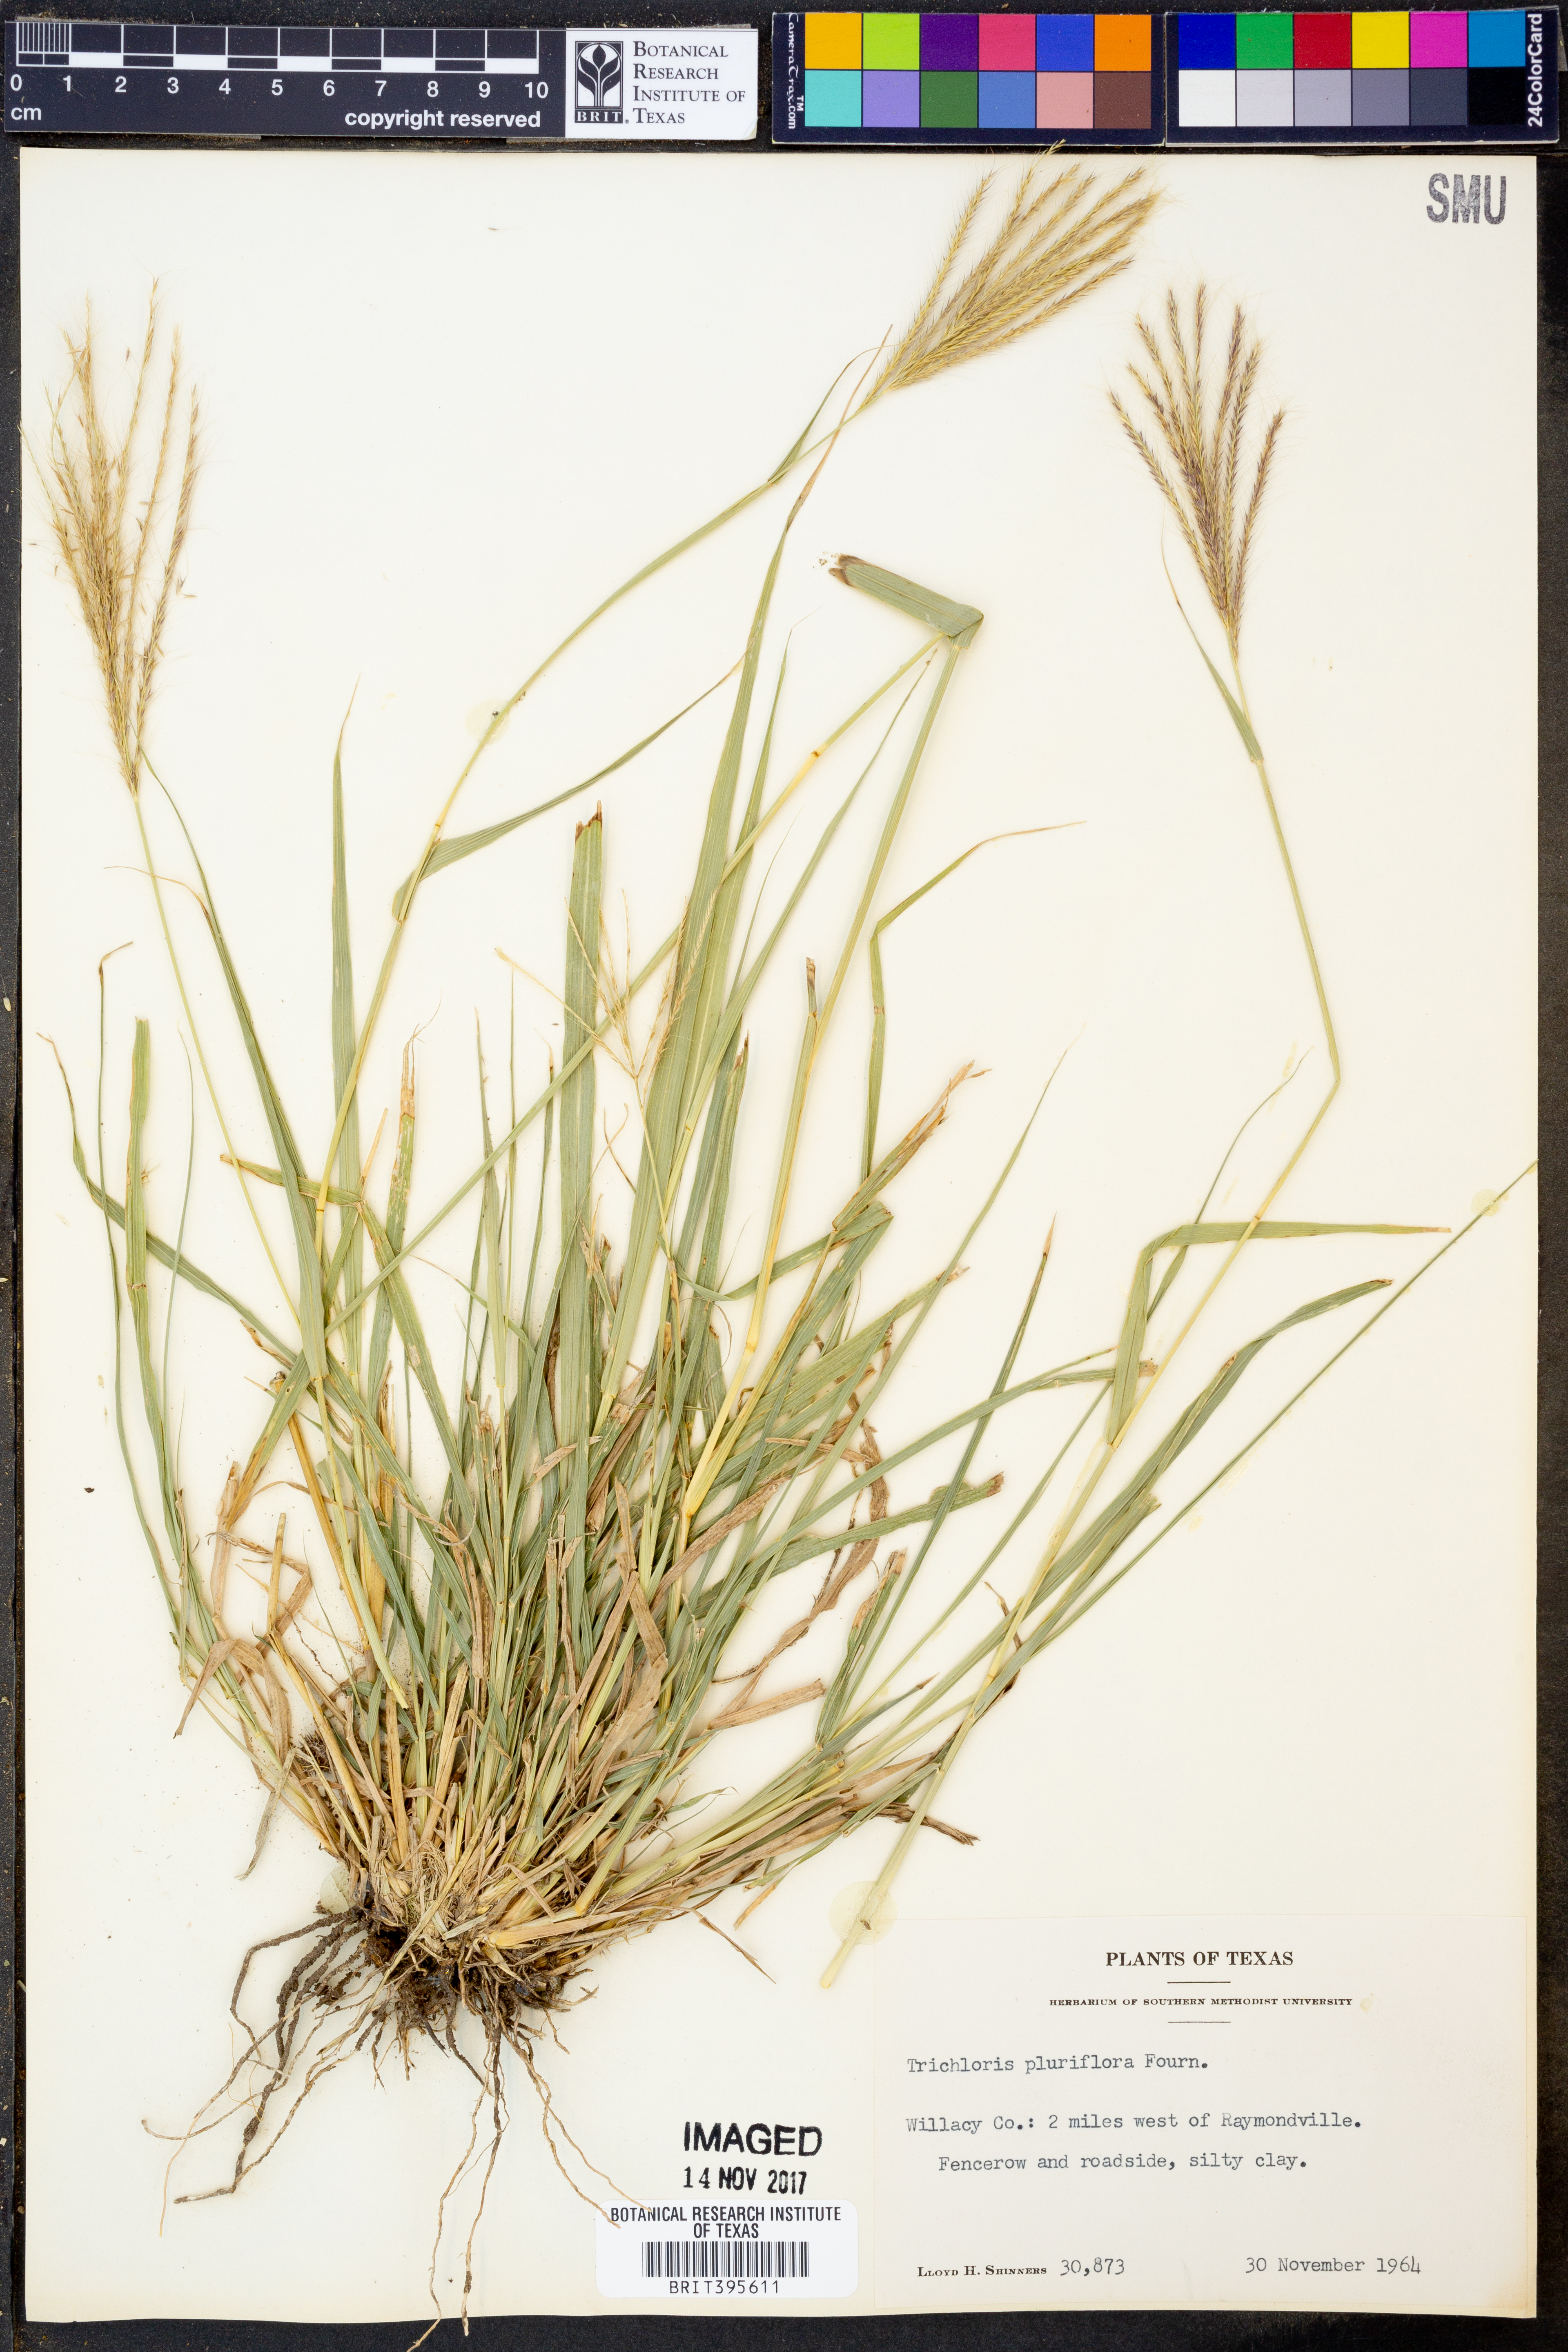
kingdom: Plantae
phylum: Tracheophyta
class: Liliopsida
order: Poales
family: Poaceae
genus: Leptochloa
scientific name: Leptochloa pluriflora
